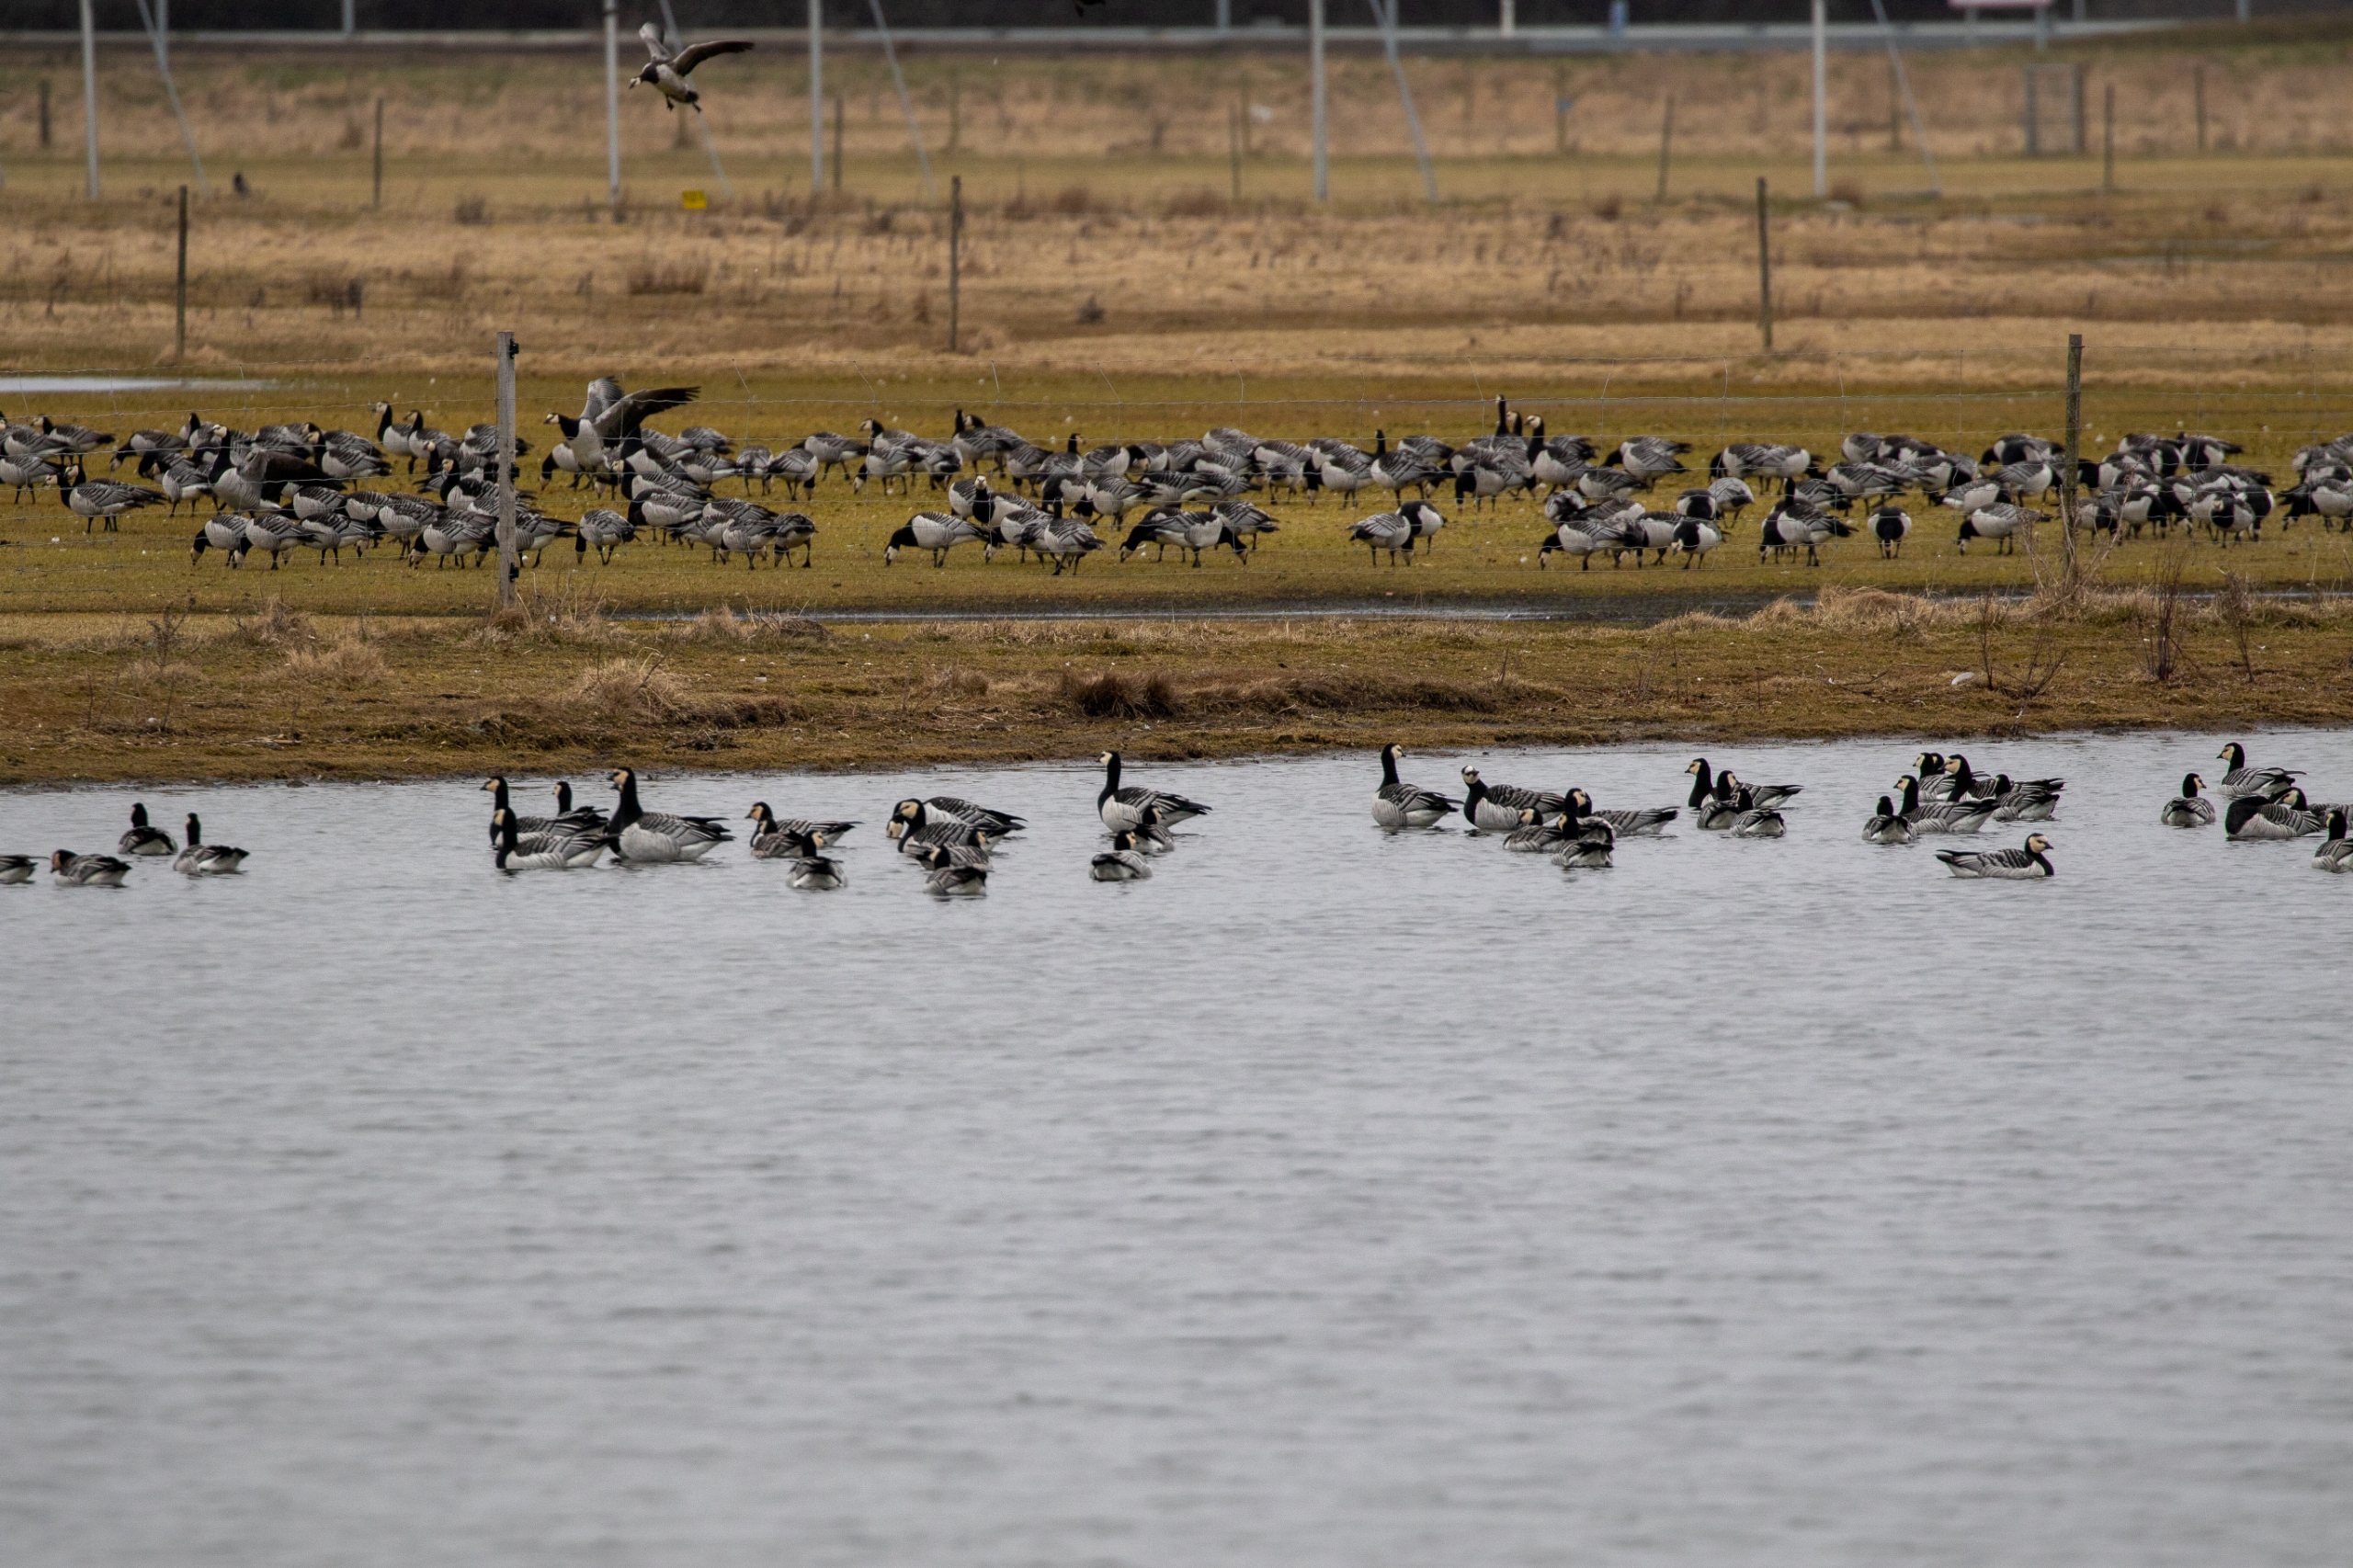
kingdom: Animalia
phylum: Chordata
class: Aves
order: Anseriformes
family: Anatidae
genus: Branta
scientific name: Branta leucopsis
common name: Bramgås
